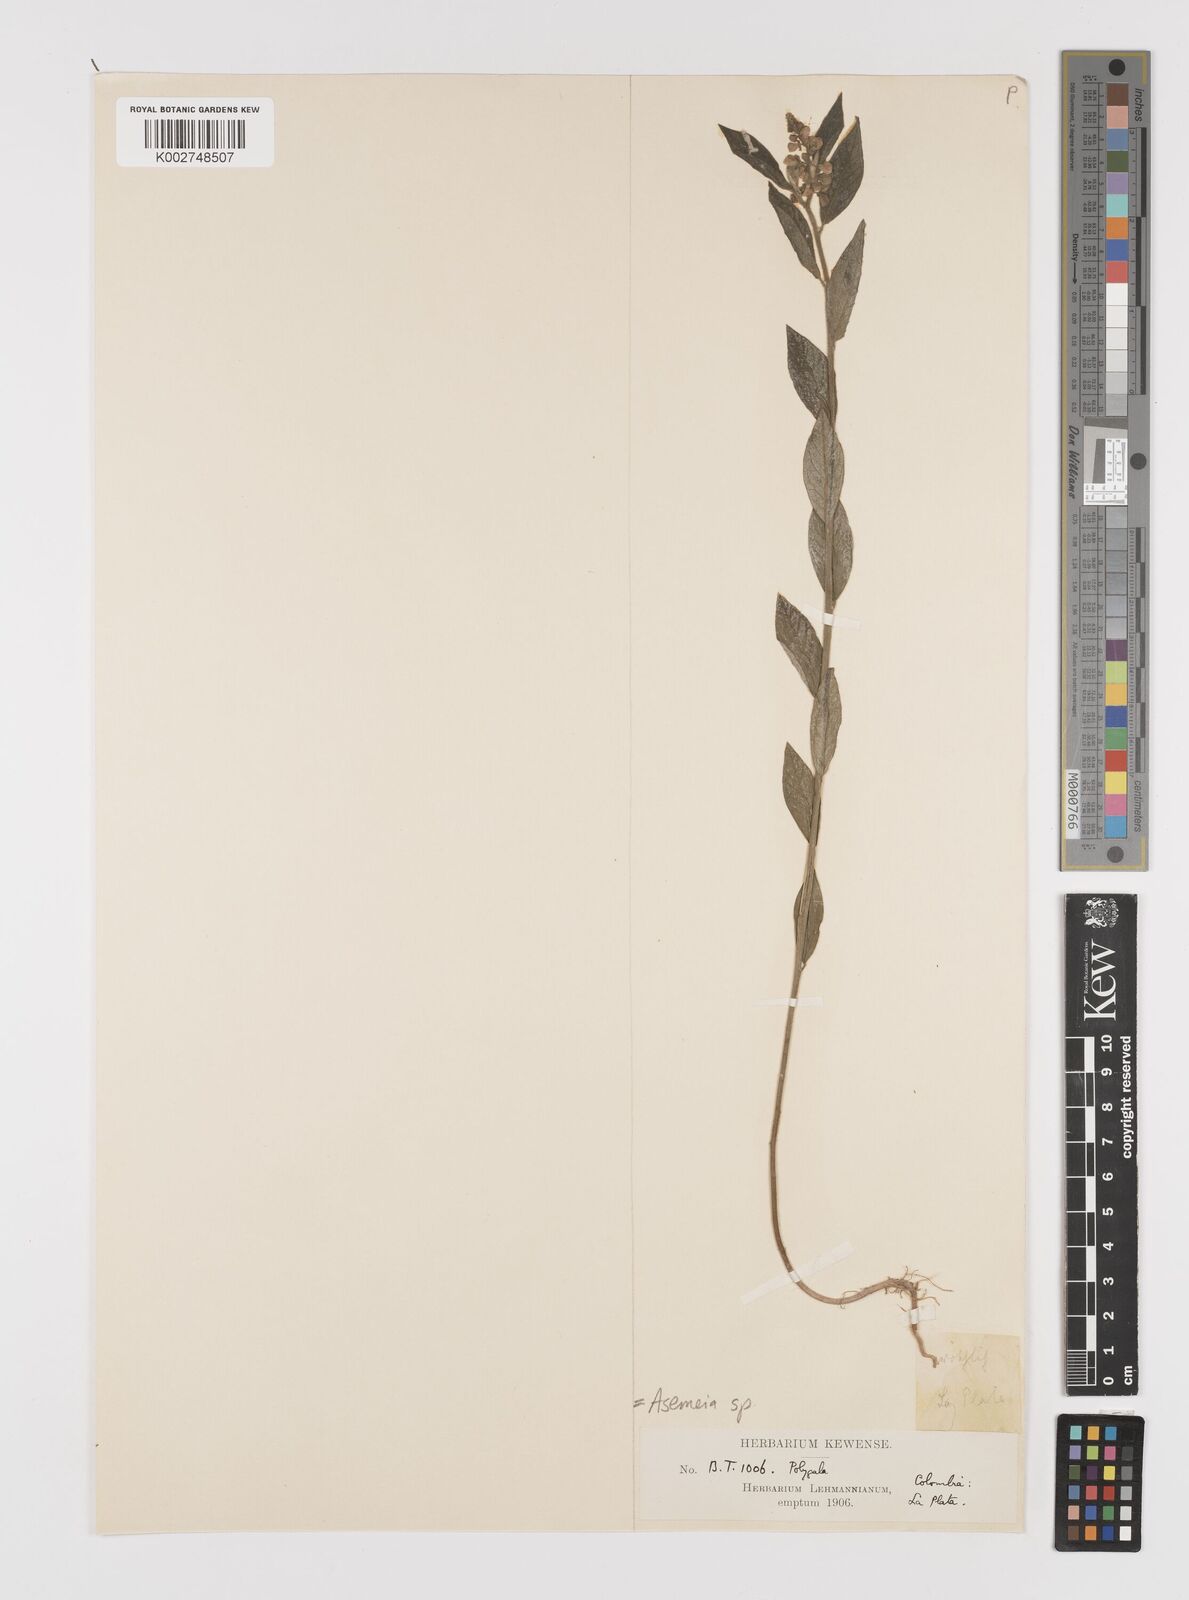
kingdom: Plantae
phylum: Tracheophyta
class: Magnoliopsida
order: Fabales
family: Polygalaceae
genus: Asemeia
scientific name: Asemeia
